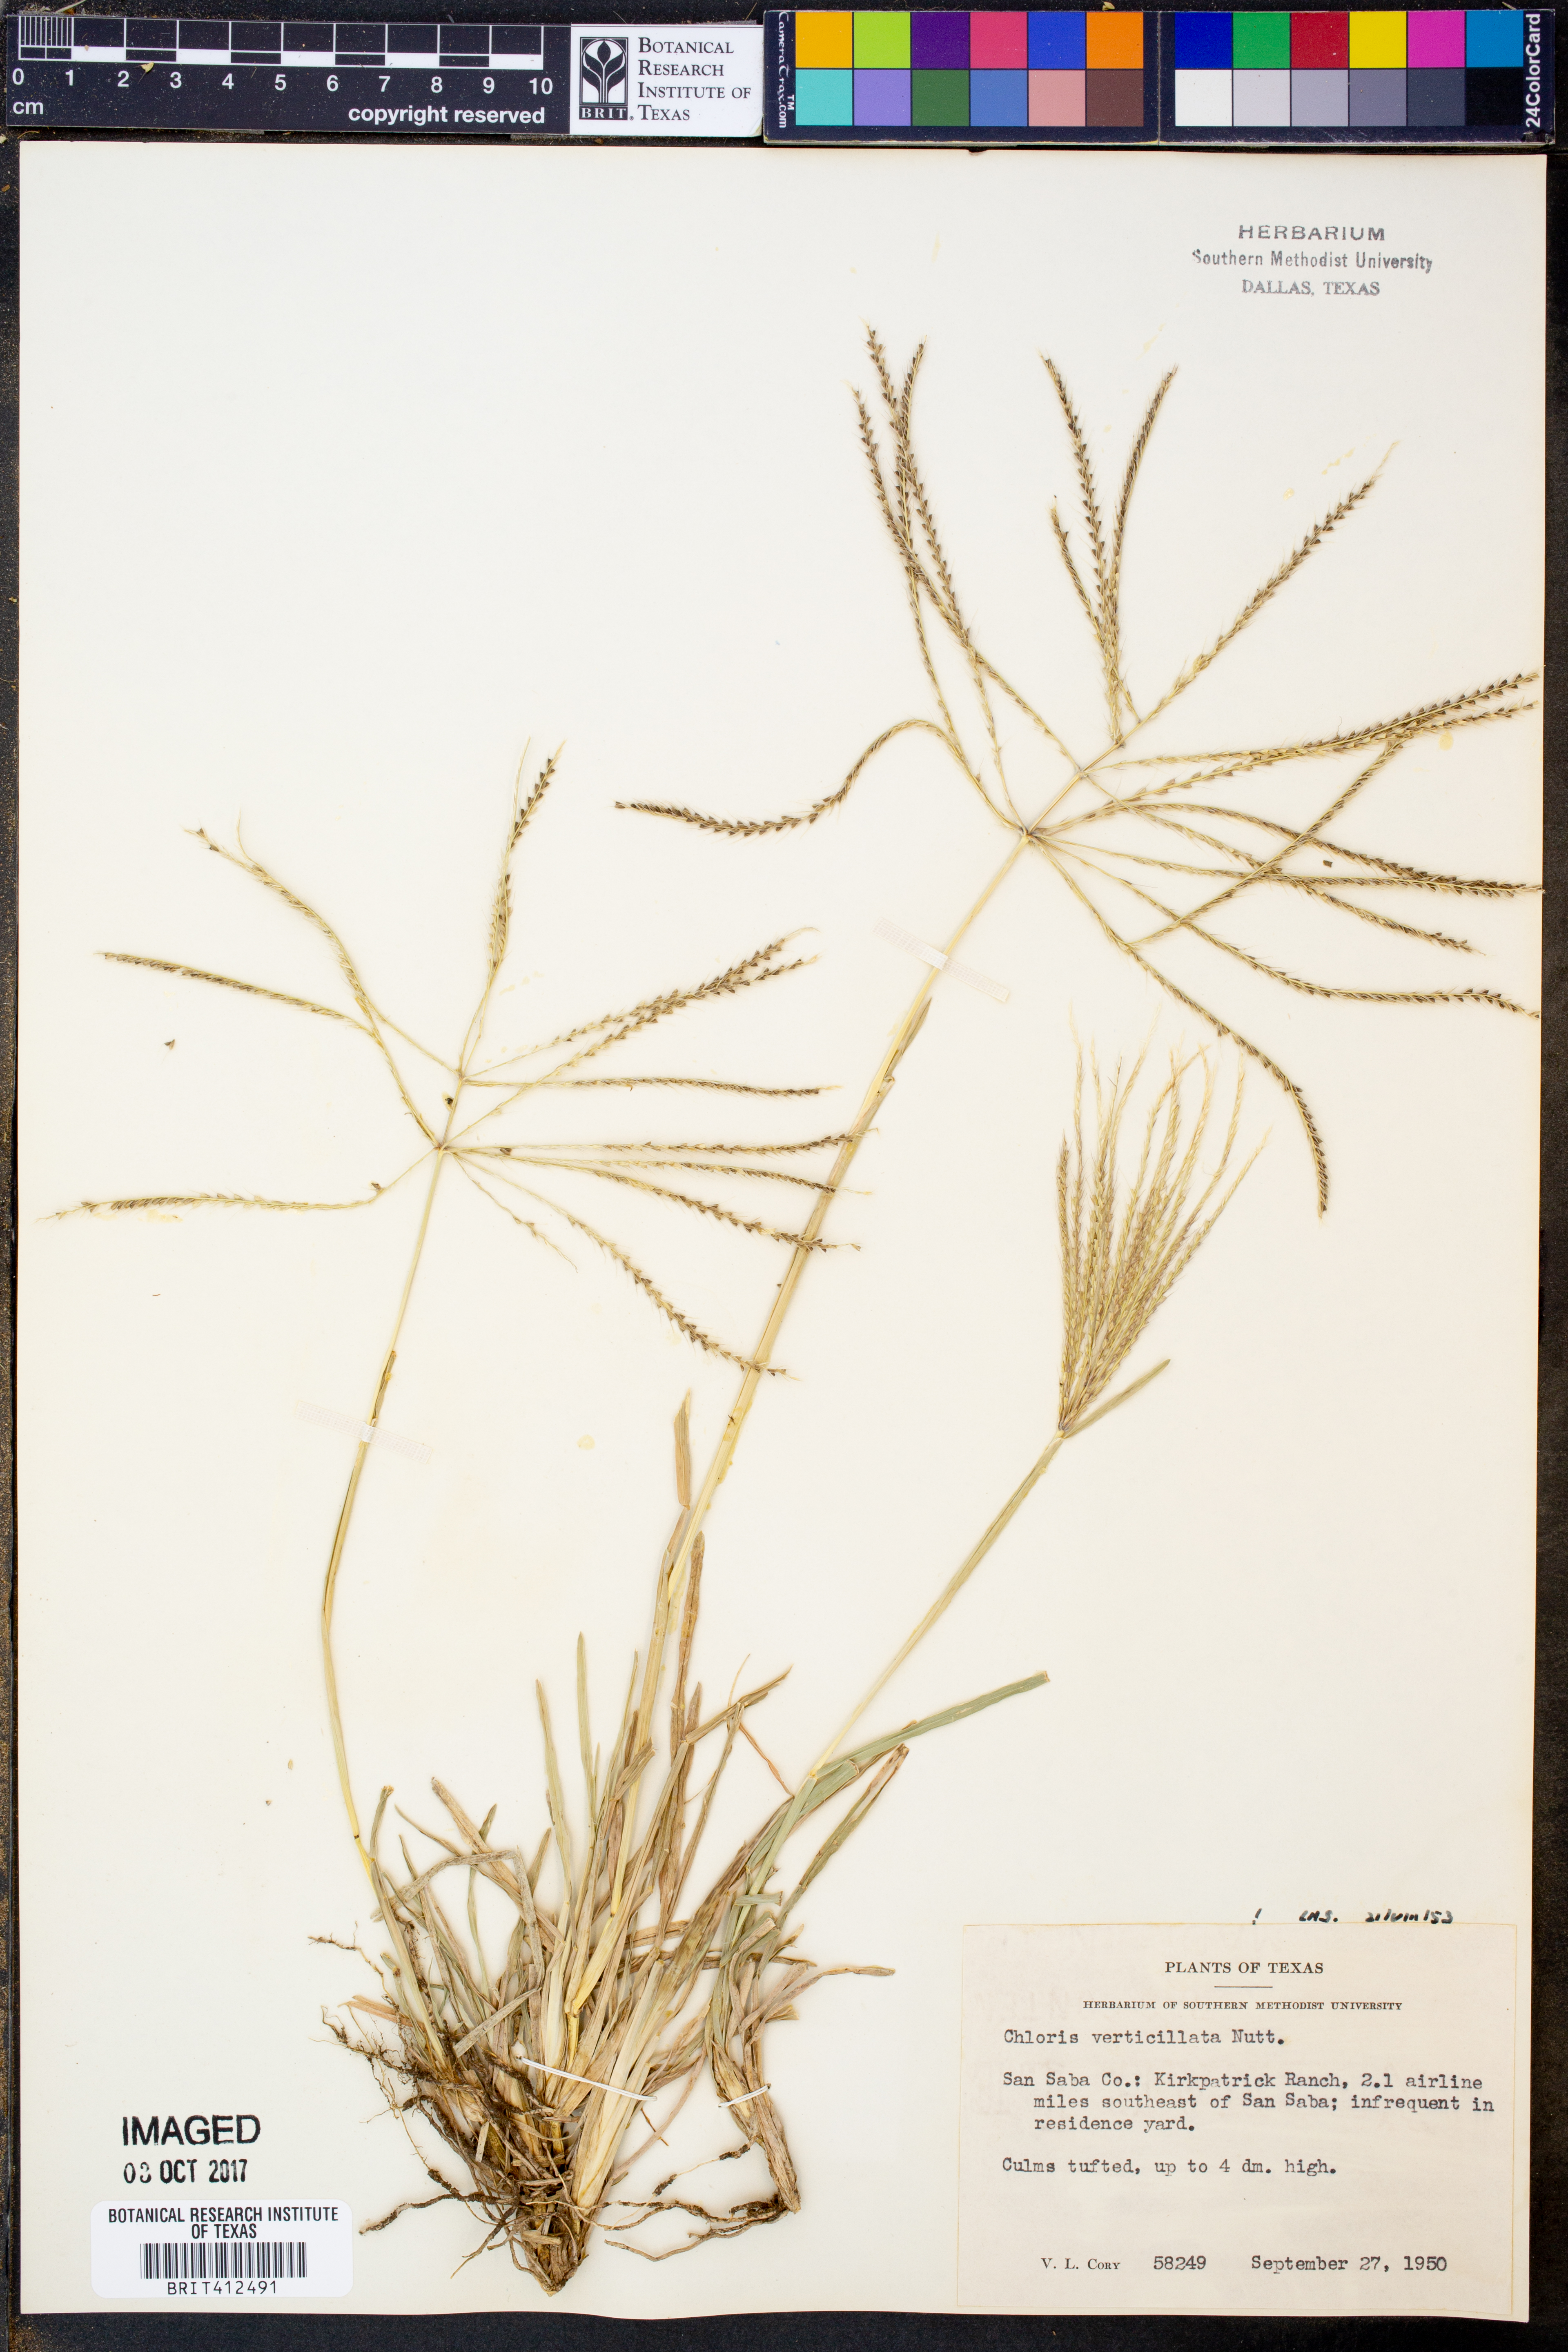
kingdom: Plantae
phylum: Tracheophyta
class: Liliopsida
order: Poales
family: Poaceae
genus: Chloris
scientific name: Chloris verticillata
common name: Tumble windmill grass
